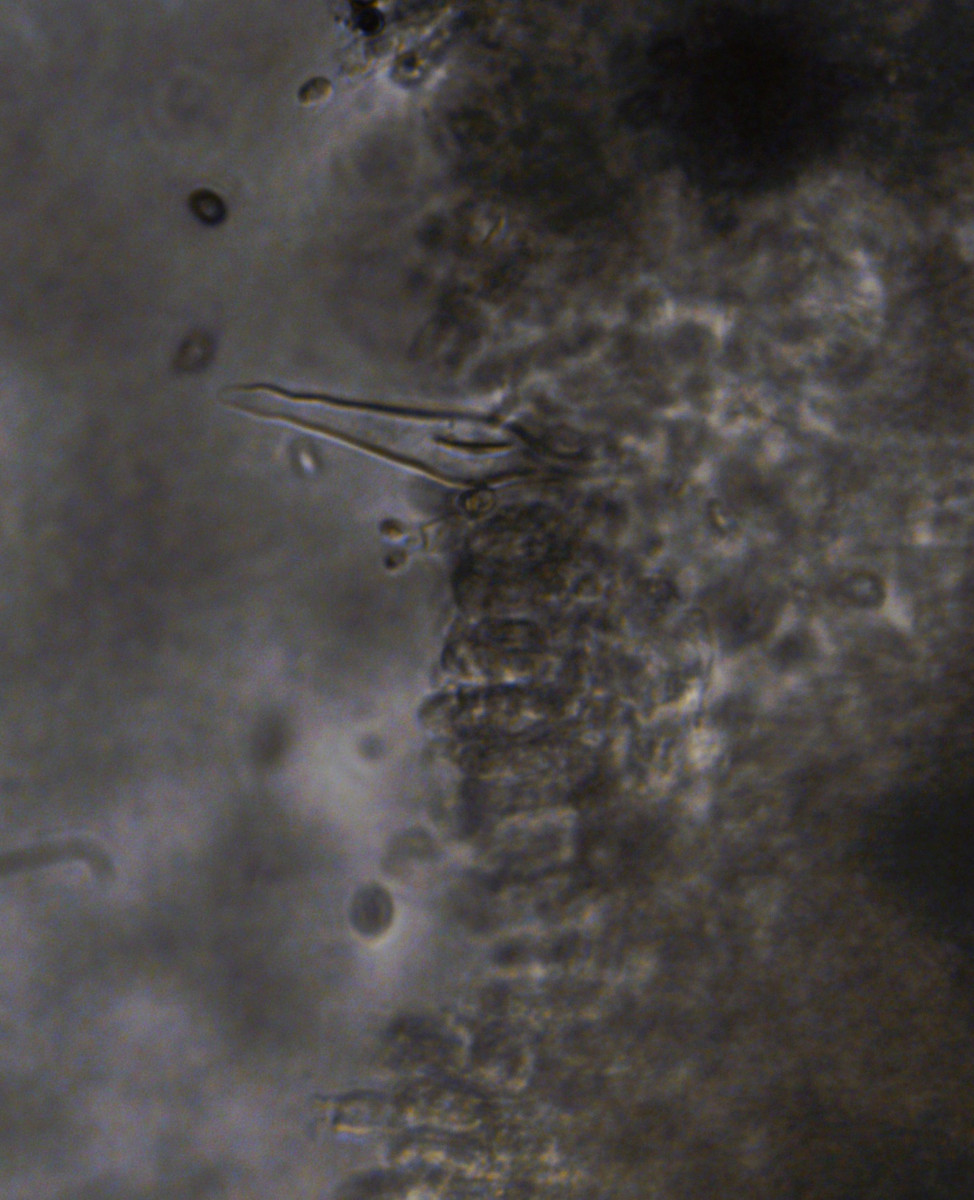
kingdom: Fungi
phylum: Basidiomycota
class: Agaricomycetes
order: Agaricales
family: Strophariaceae
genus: Kuehneromyces
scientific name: Kuehneromyces
